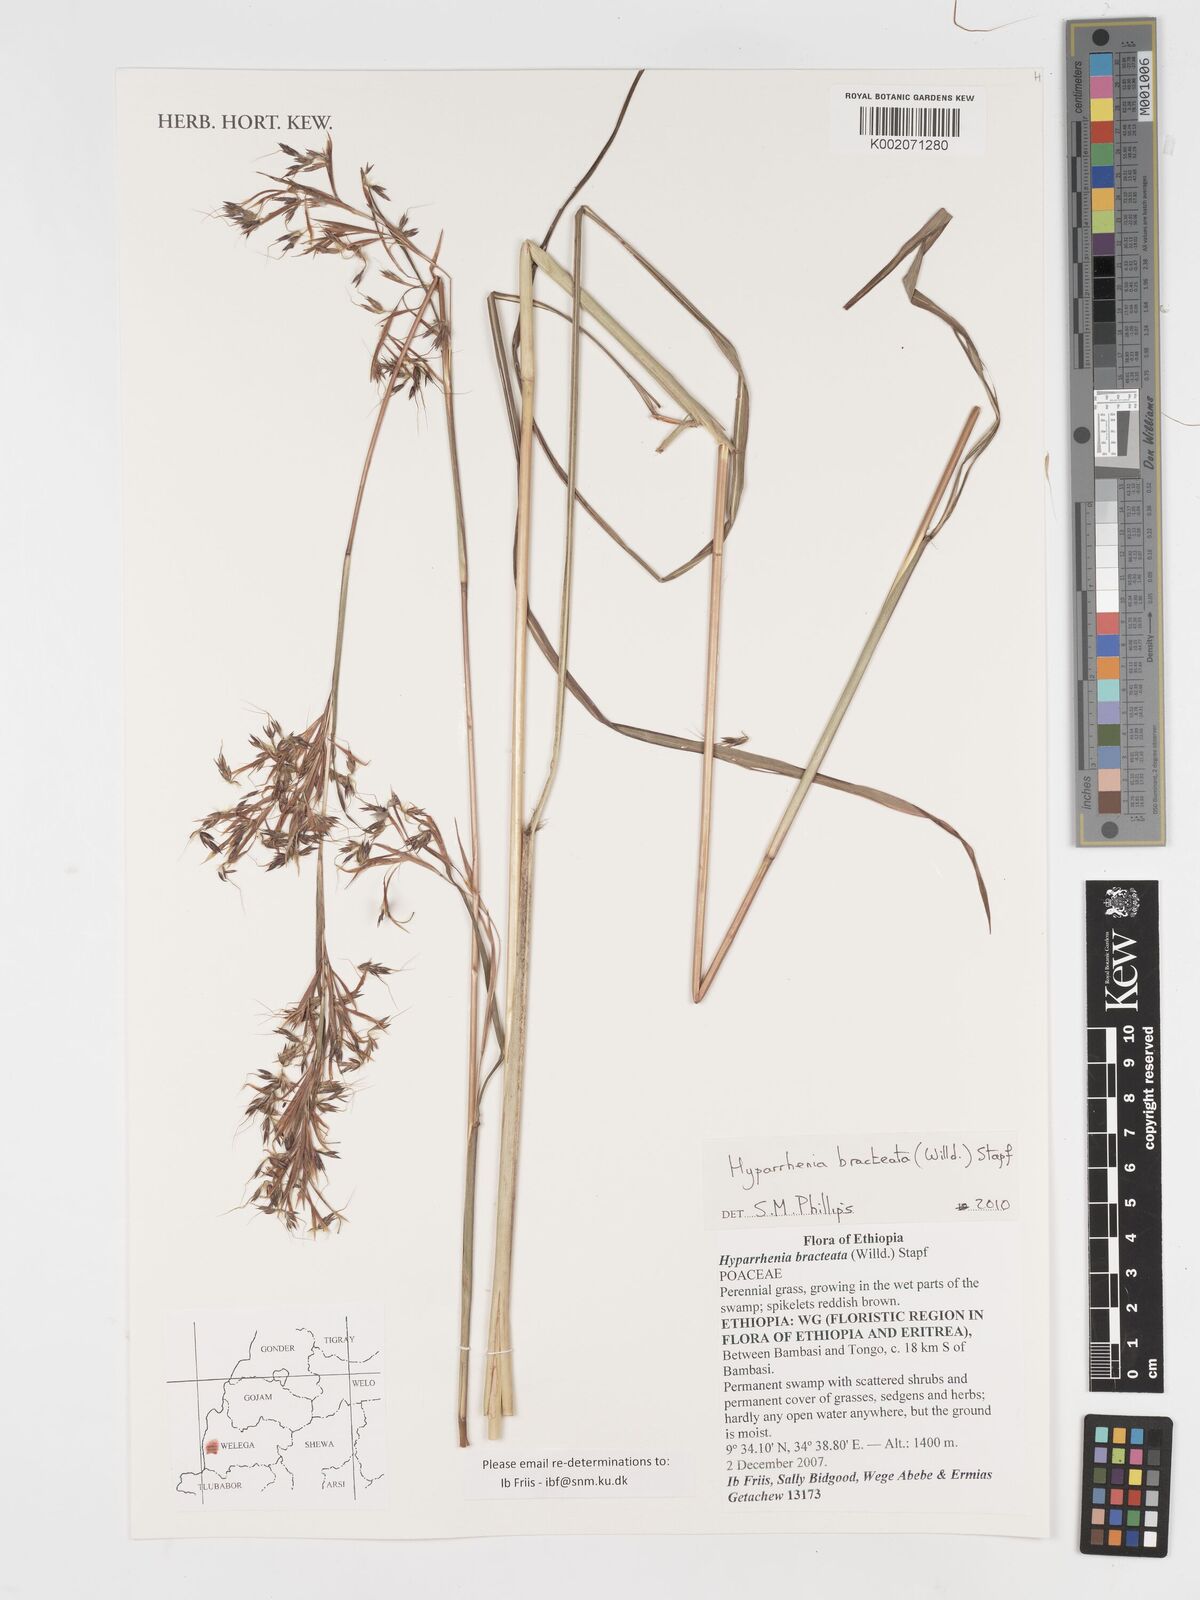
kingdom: Plantae
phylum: Tracheophyta
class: Liliopsida
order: Poales
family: Poaceae
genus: Hyparrhenia
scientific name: Hyparrhenia bracteata
